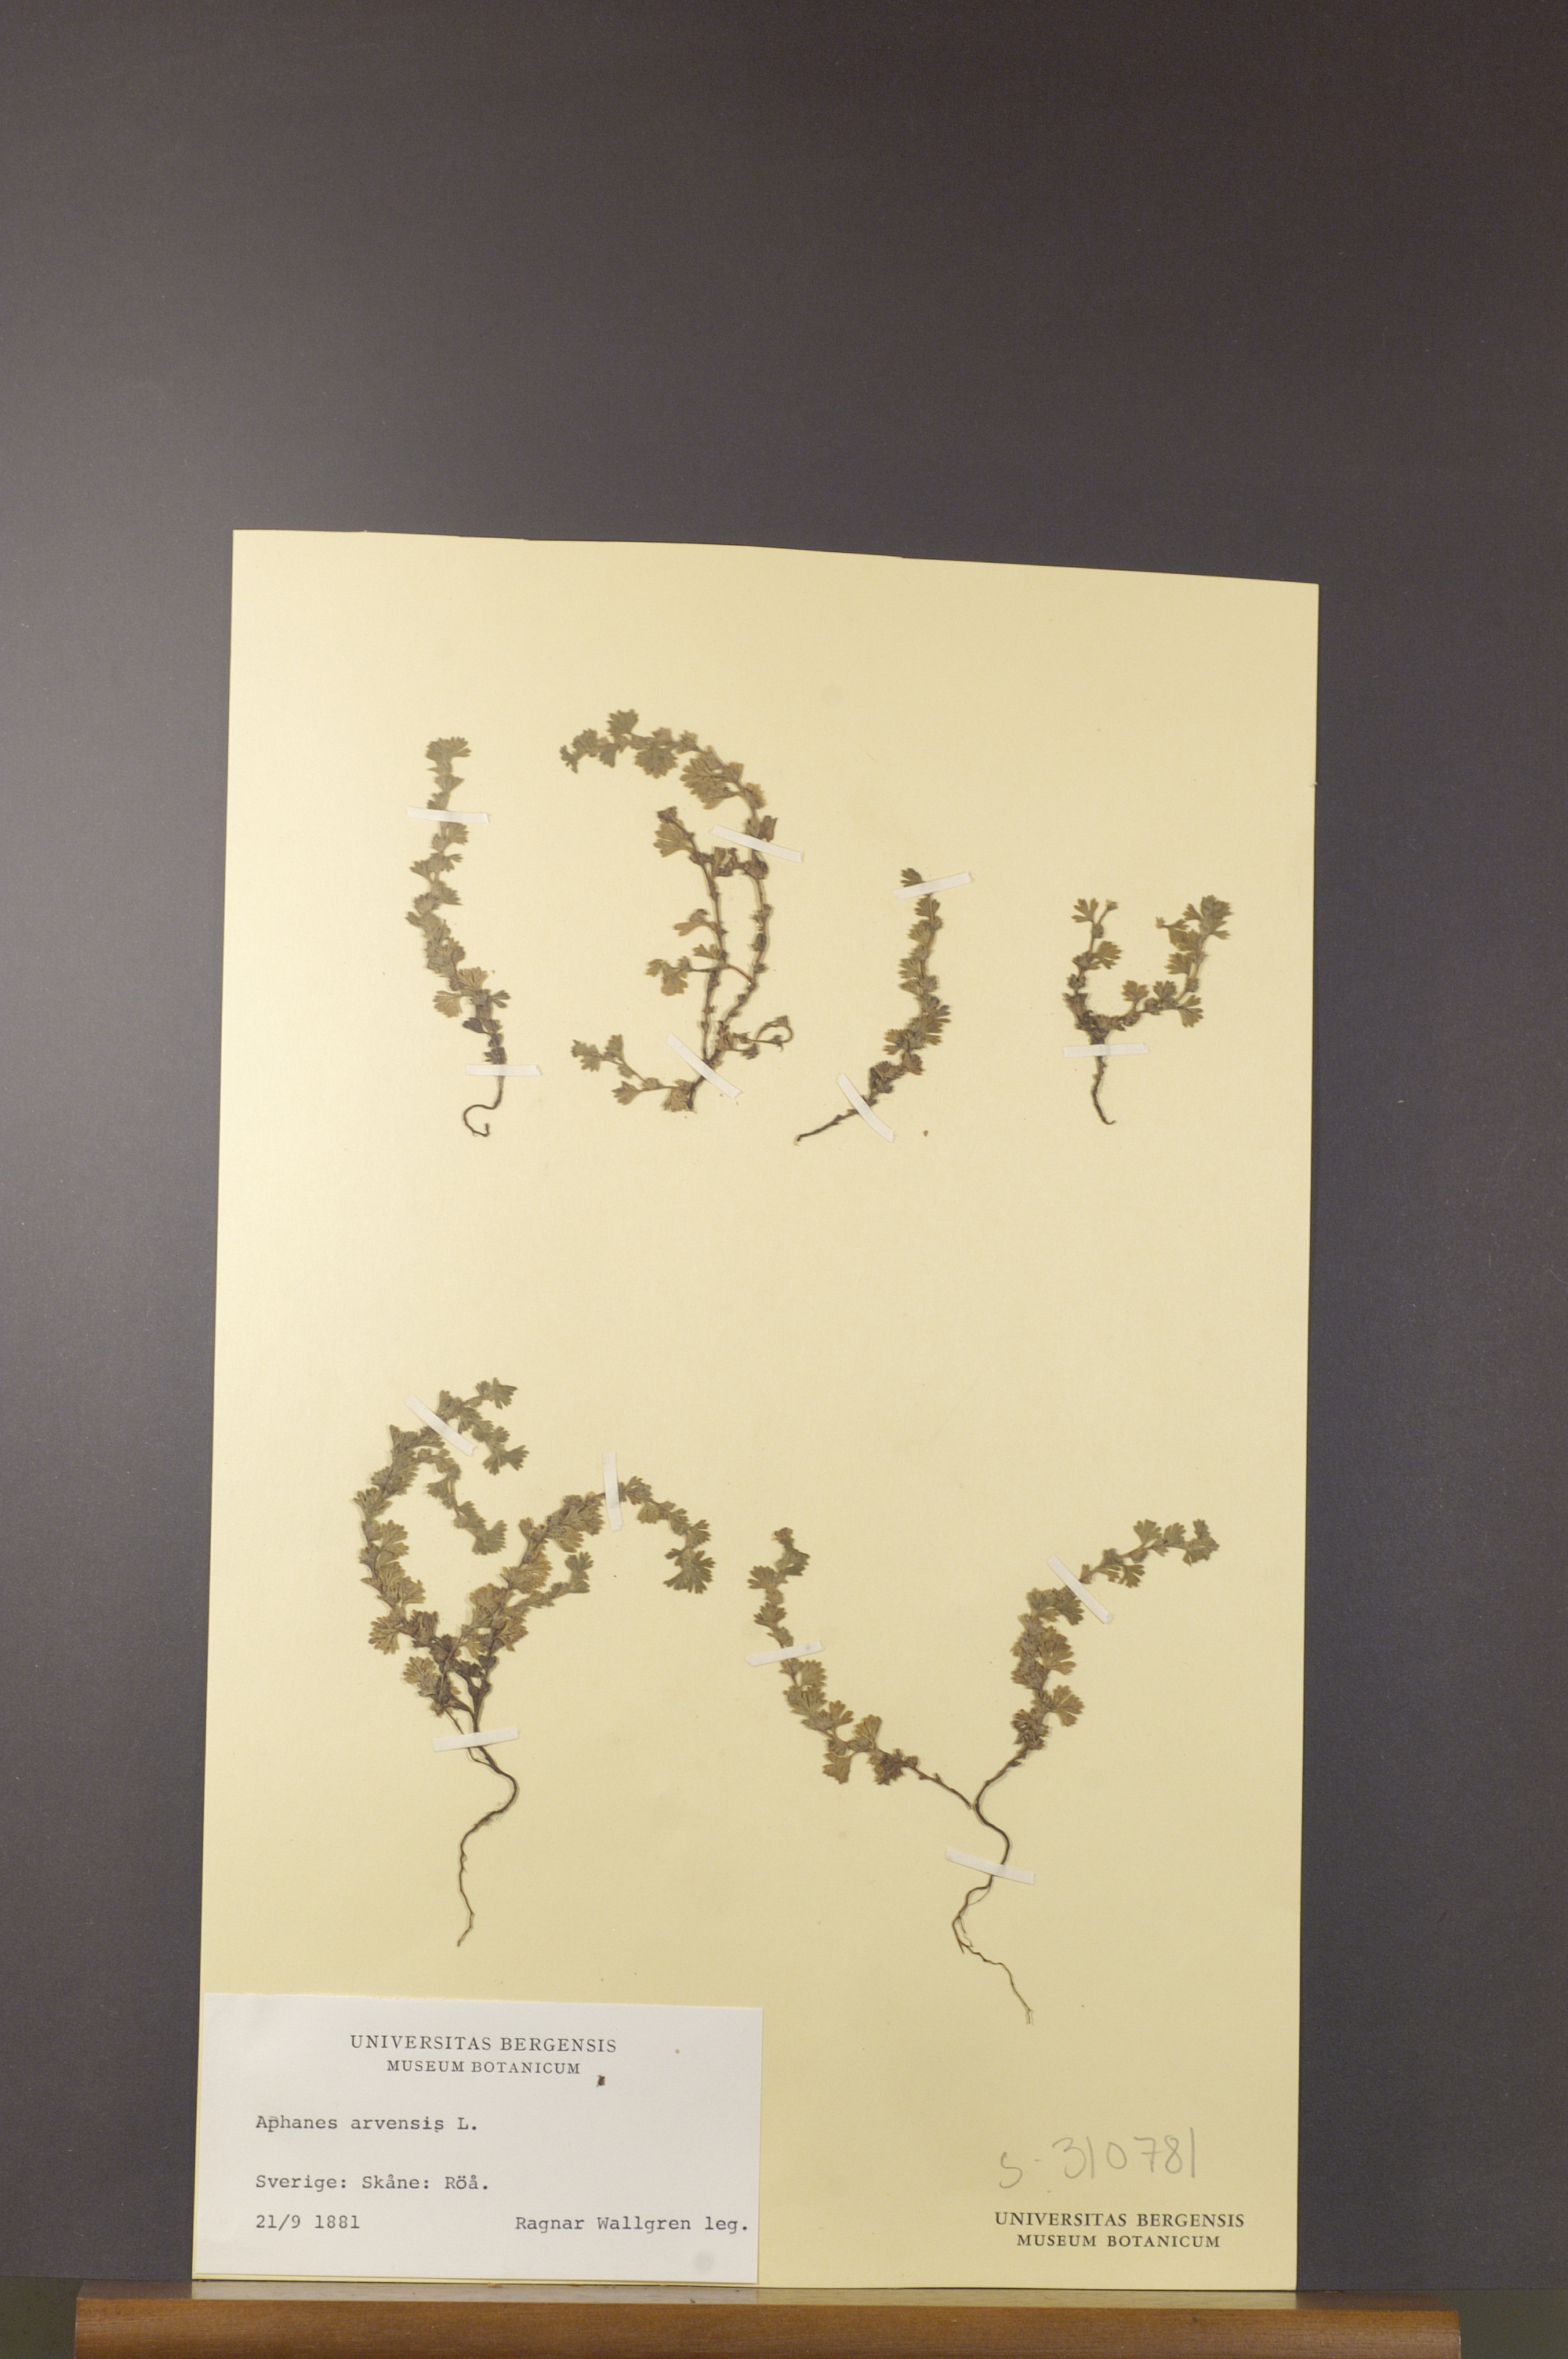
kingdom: Plantae
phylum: Tracheophyta
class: Magnoliopsida
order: Rosales
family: Rosaceae
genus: Aphanes
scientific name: Aphanes arvensis
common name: Parsley-piert
